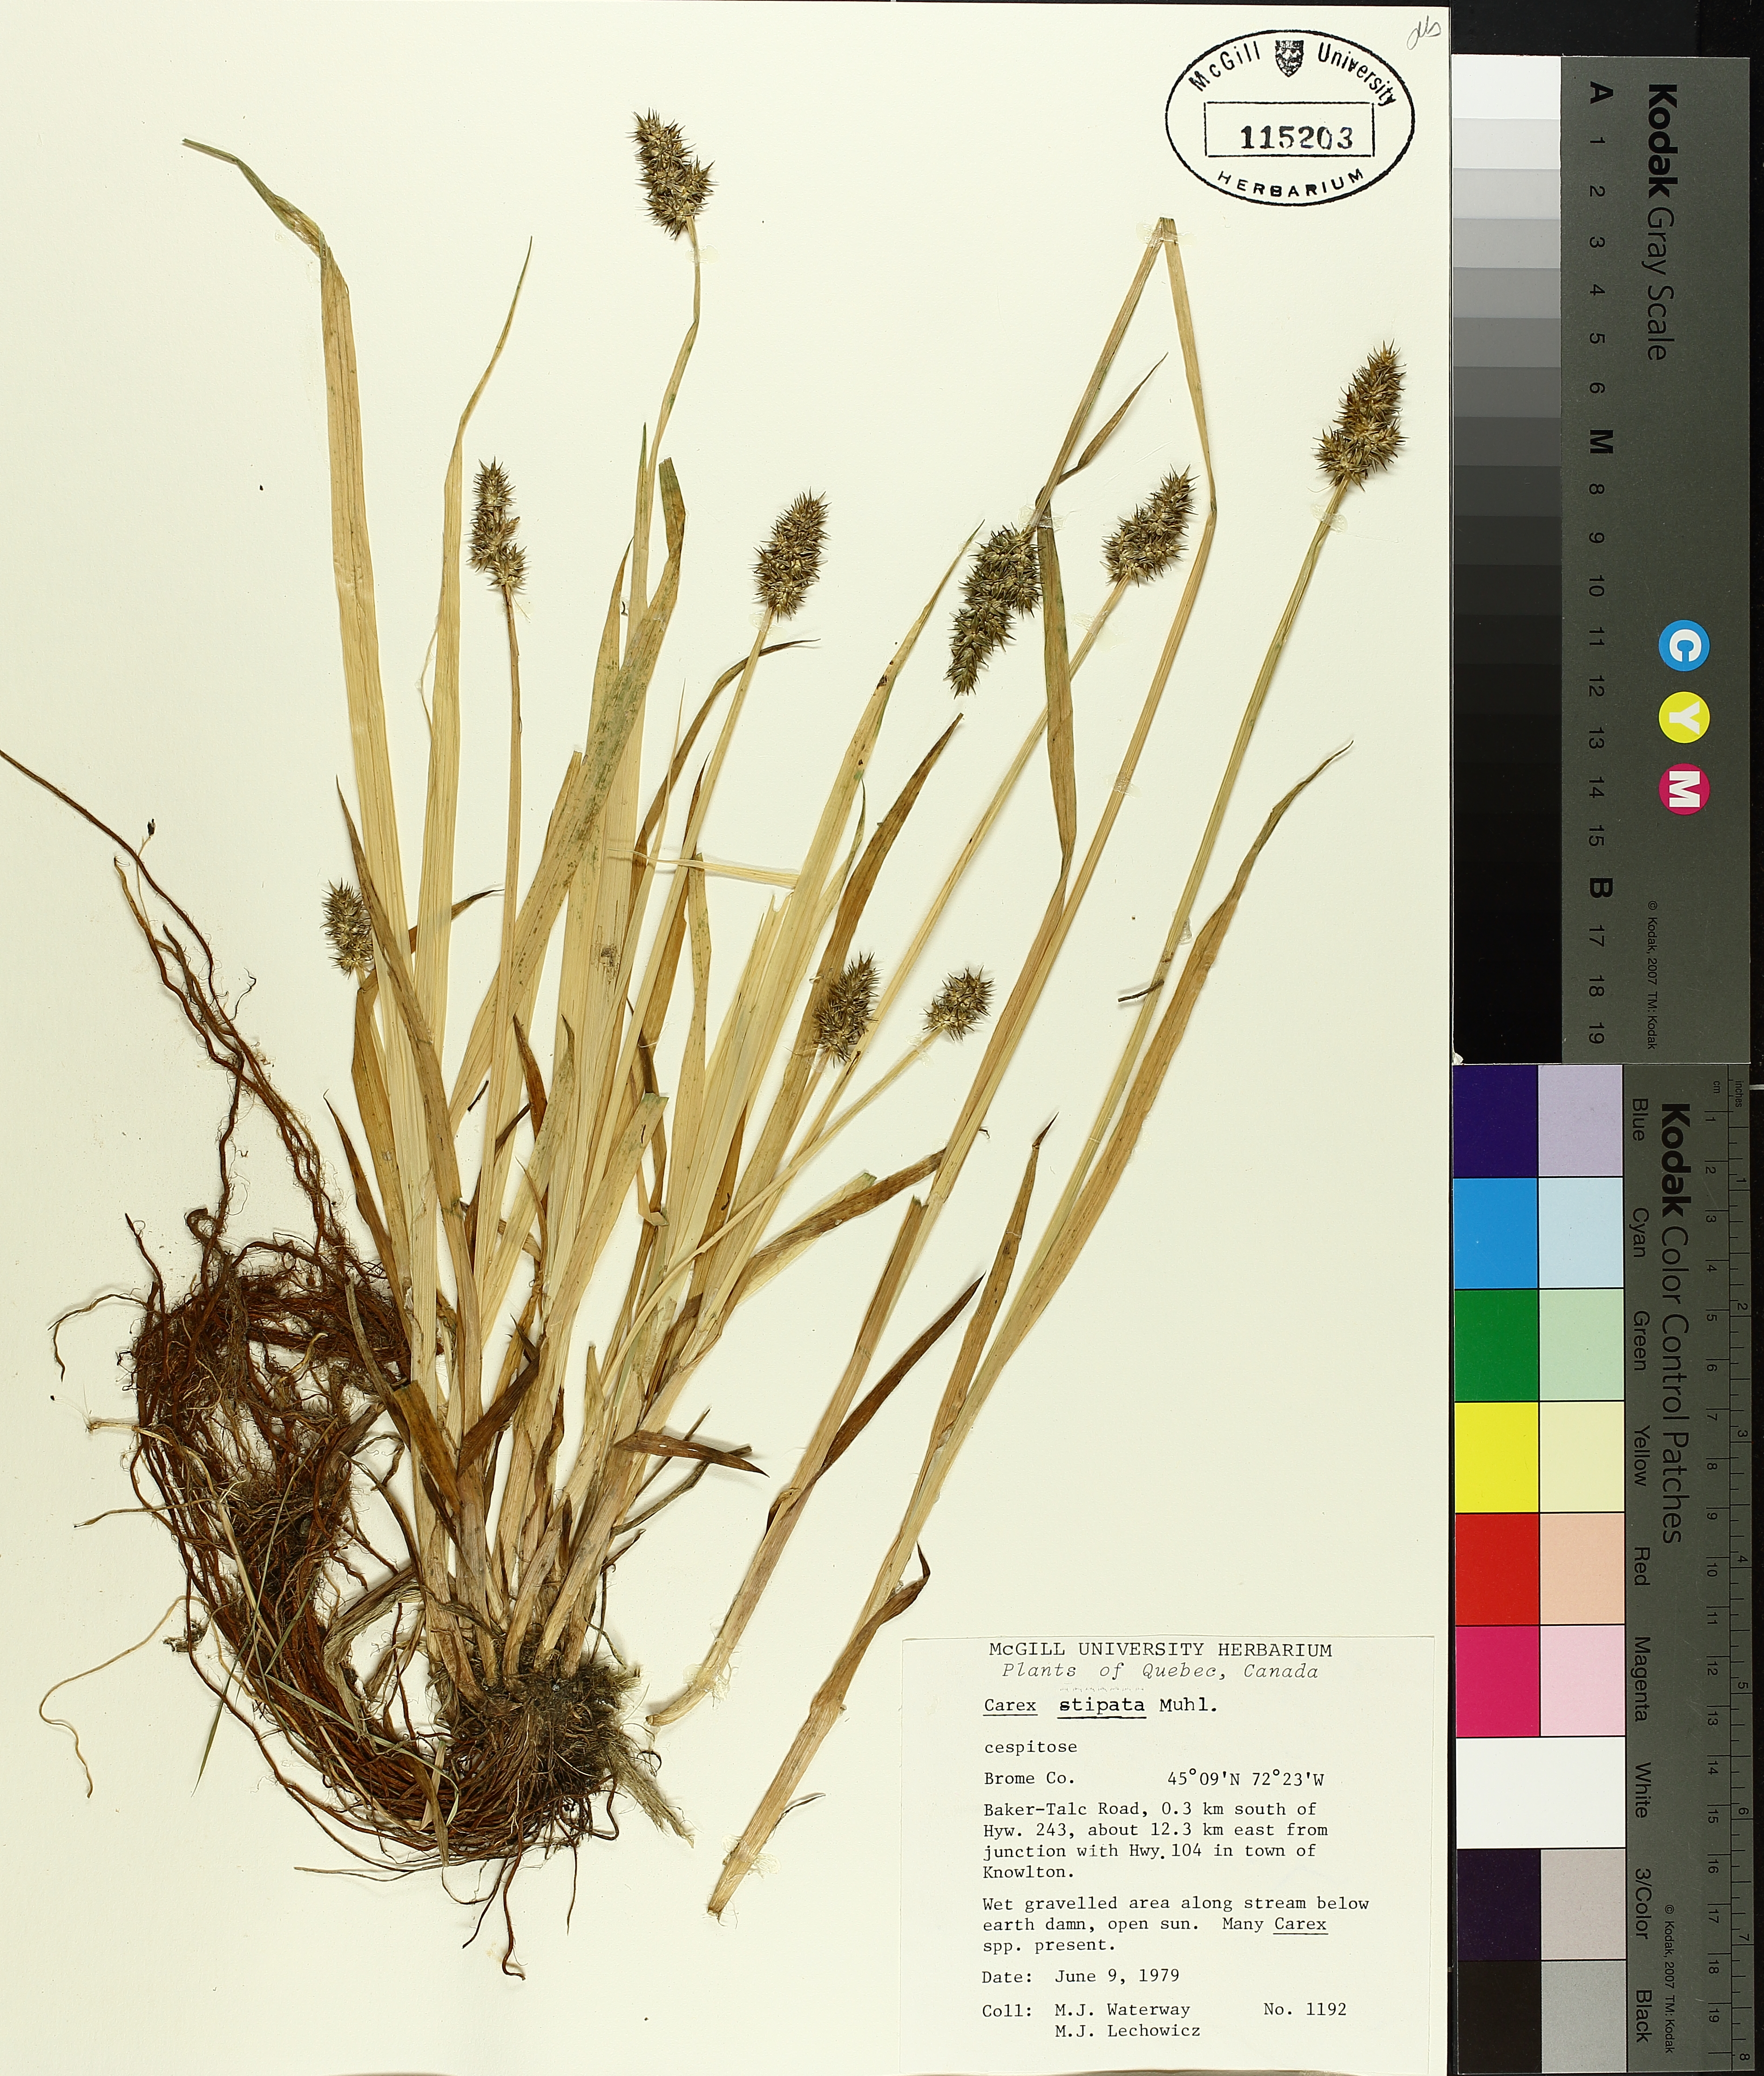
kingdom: Plantae
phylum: Tracheophyta
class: Liliopsida
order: Poales
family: Cyperaceae
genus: Carex
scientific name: Carex stipata
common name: Awl-fruited sedge
